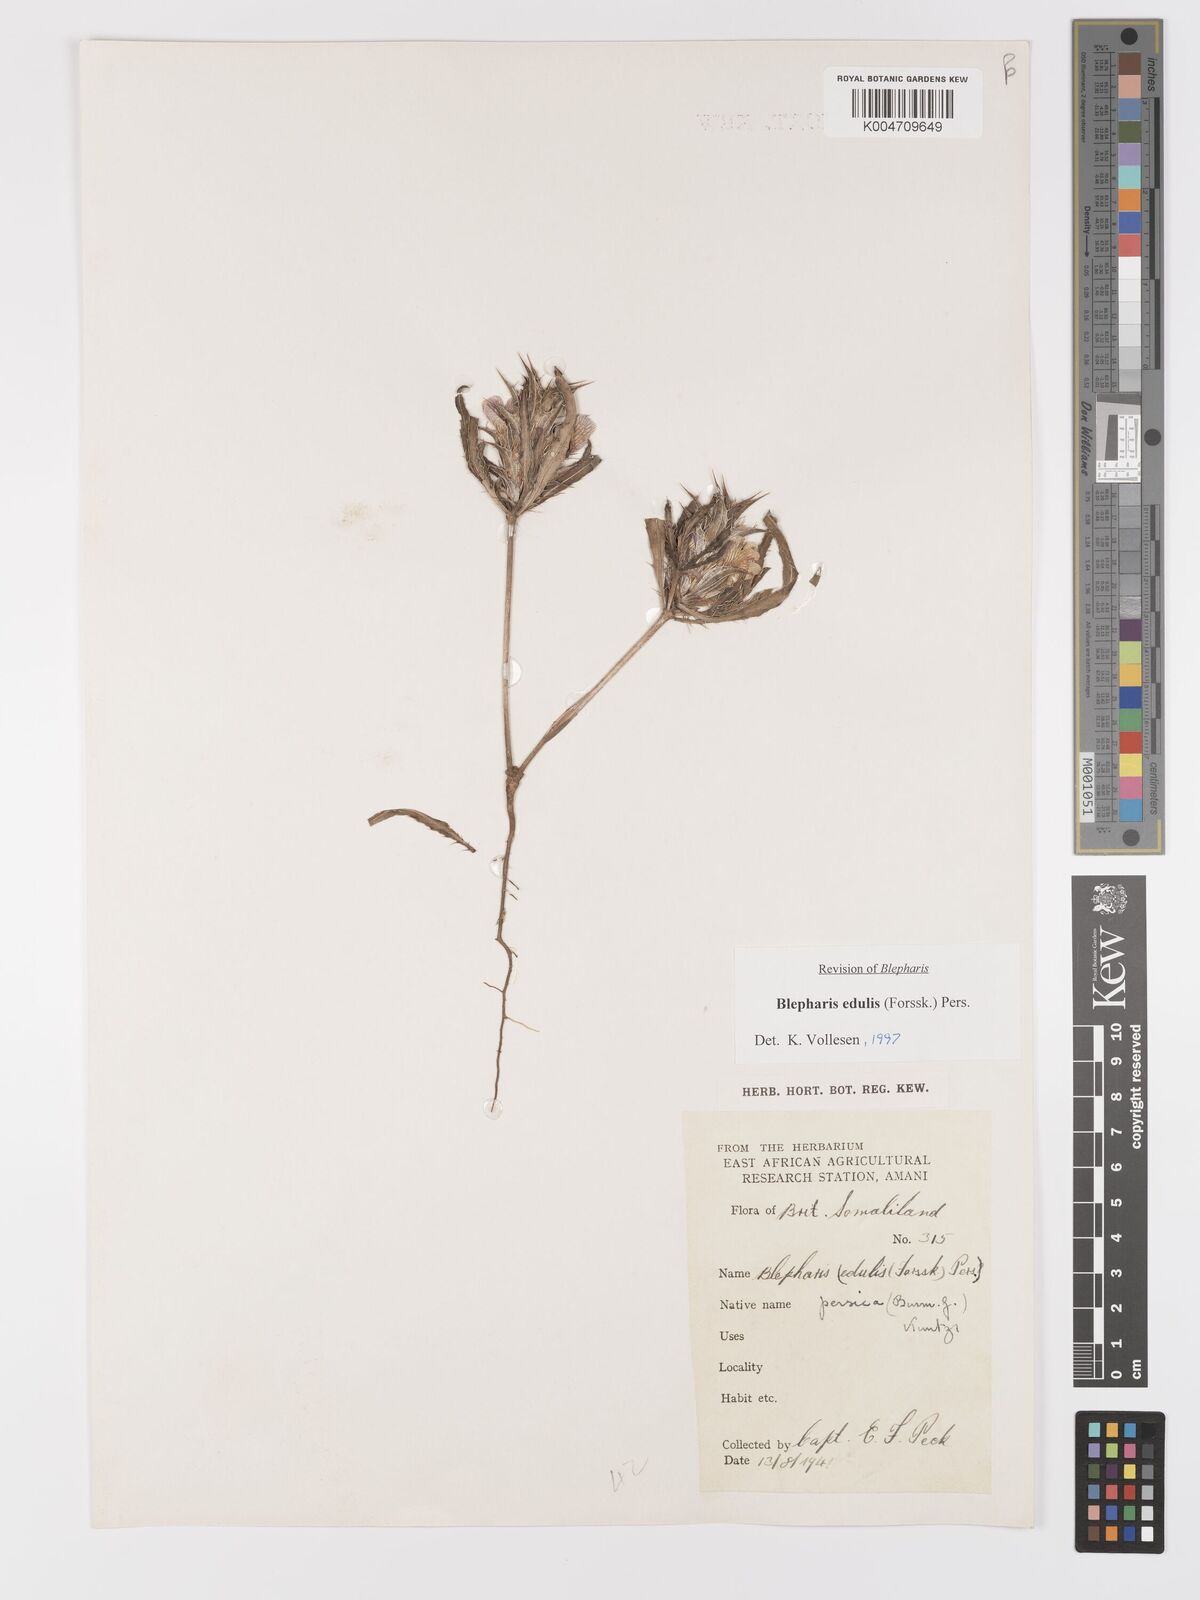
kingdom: Plantae
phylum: Tracheophyta
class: Magnoliopsida
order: Lamiales
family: Acanthaceae
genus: Blepharis
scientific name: Blepharis edulis
